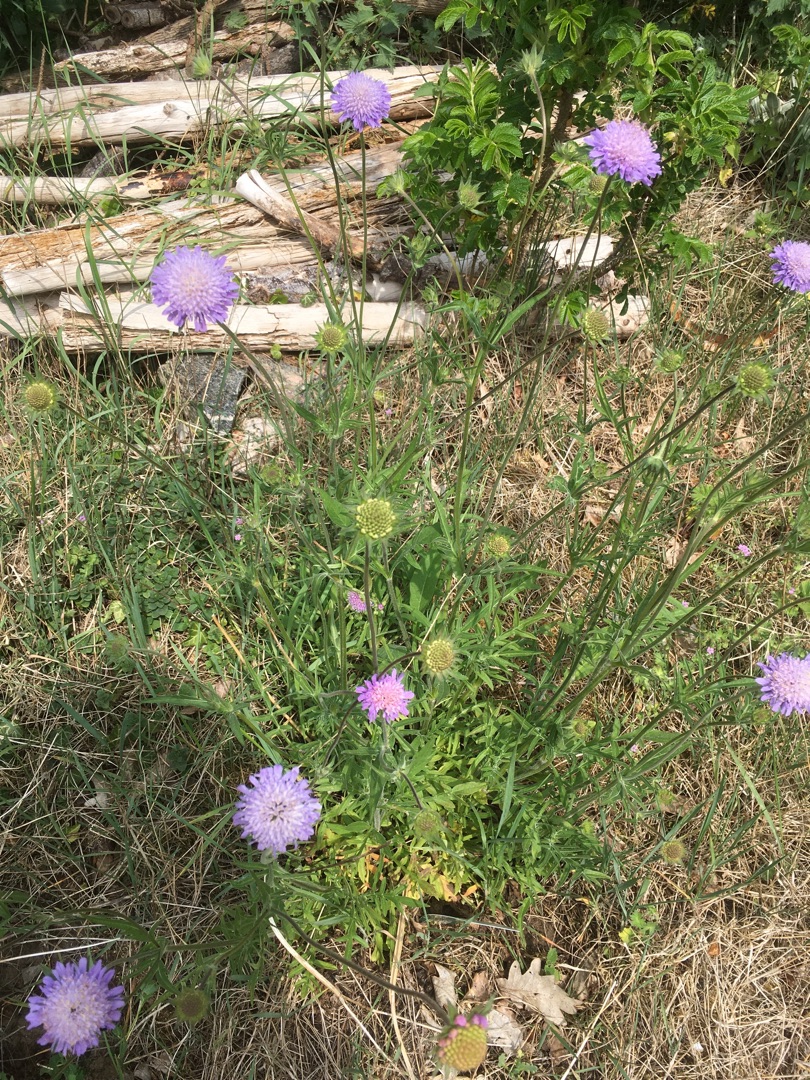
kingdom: Plantae
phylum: Tracheophyta
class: Magnoliopsida
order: Dipsacales
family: Caprifoliaceae
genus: Knautia
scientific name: Knautia arvensis
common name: Blåhat
